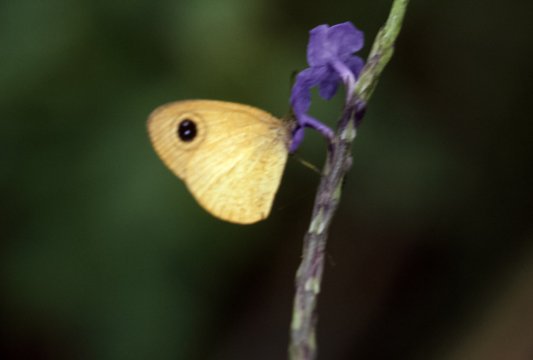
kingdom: Animalia
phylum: Arthropoda
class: Insecta
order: Lepidoptera
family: Nymphalidae
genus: Ypthima
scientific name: Ypthima sesara
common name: Common Fijian Ringlet
